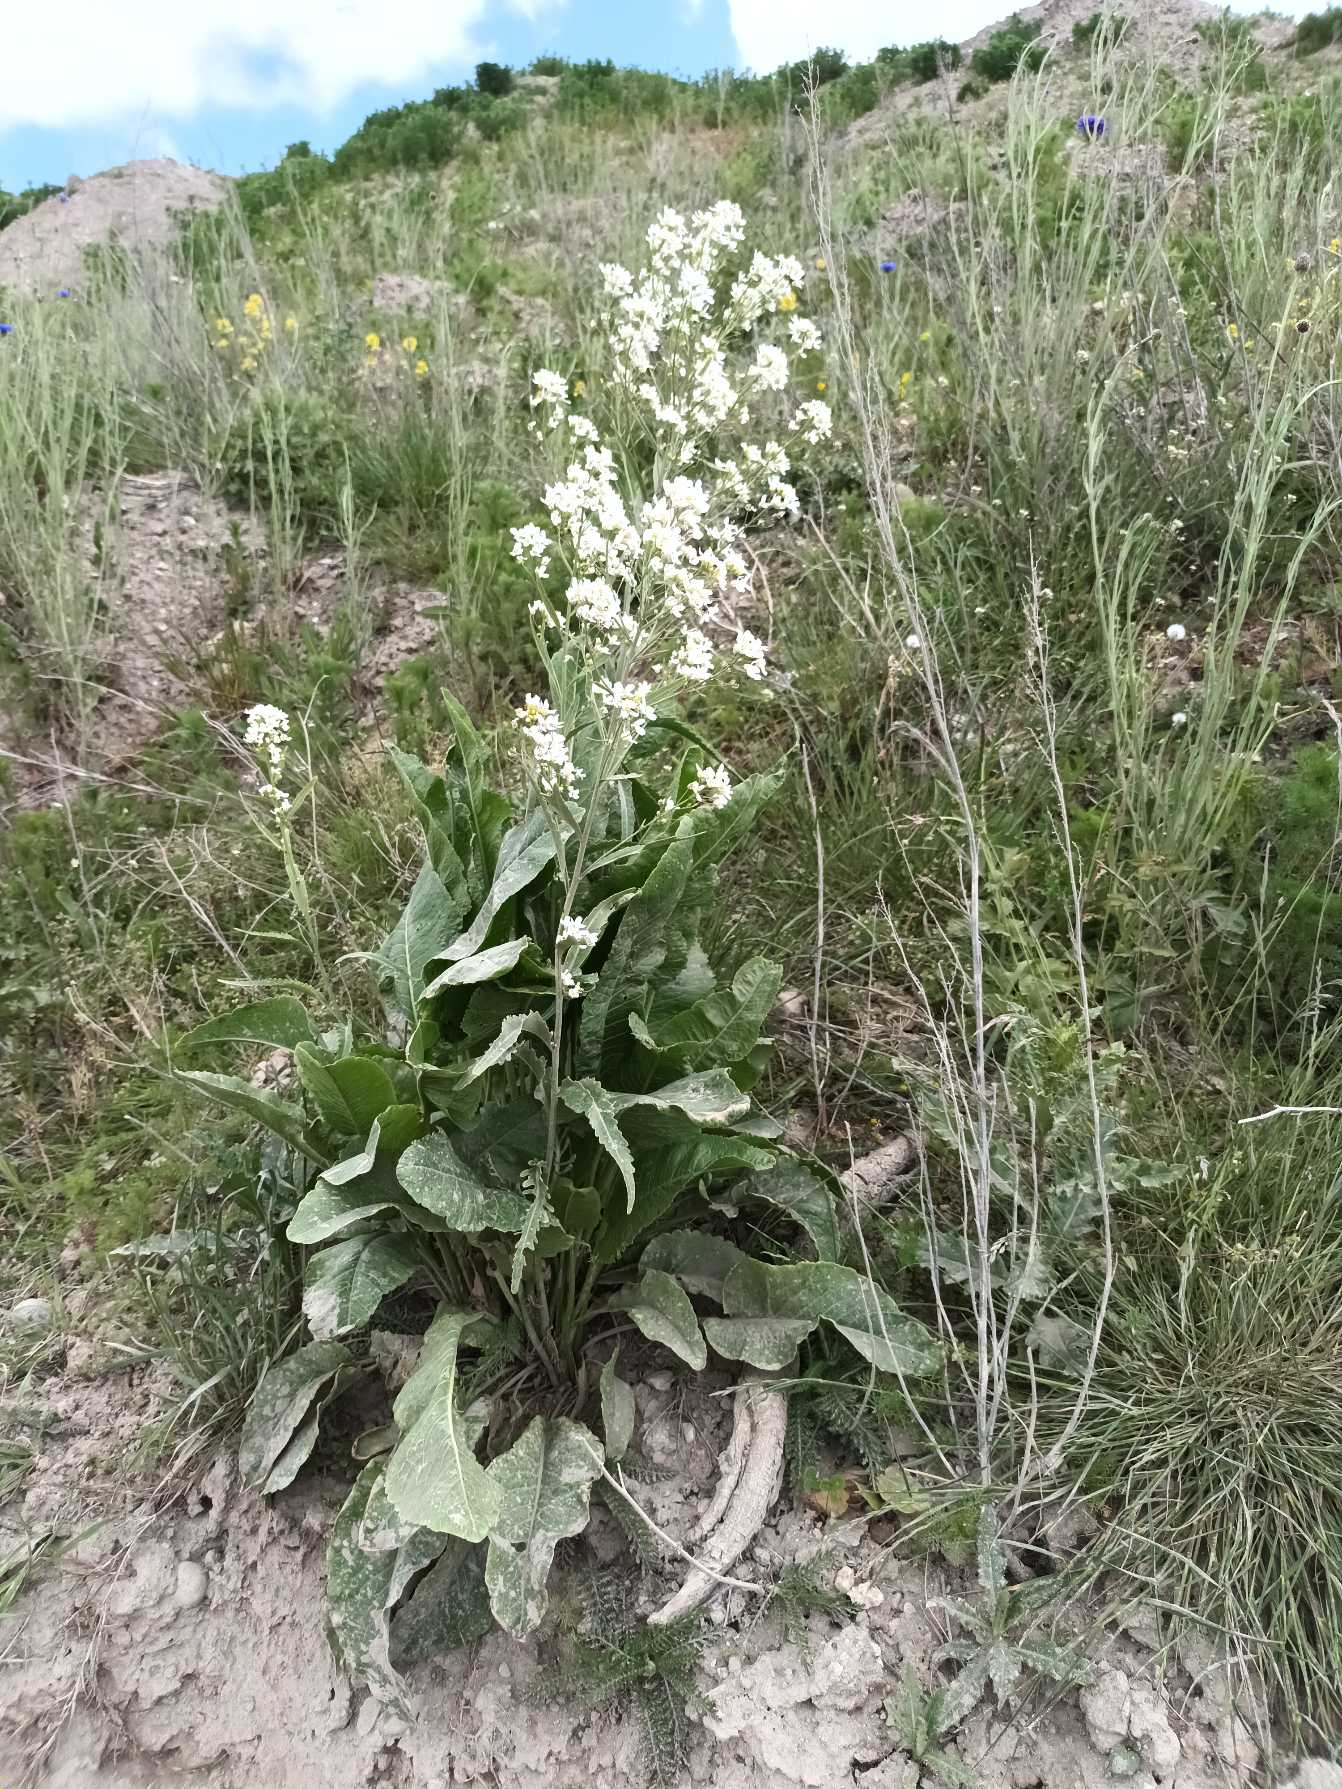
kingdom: Plantae
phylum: Tracheophyta
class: Magnoliopsida
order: Brassicales
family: Brassicaceae
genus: Armoracia
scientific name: Armoracia rusticana
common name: Peberrod
